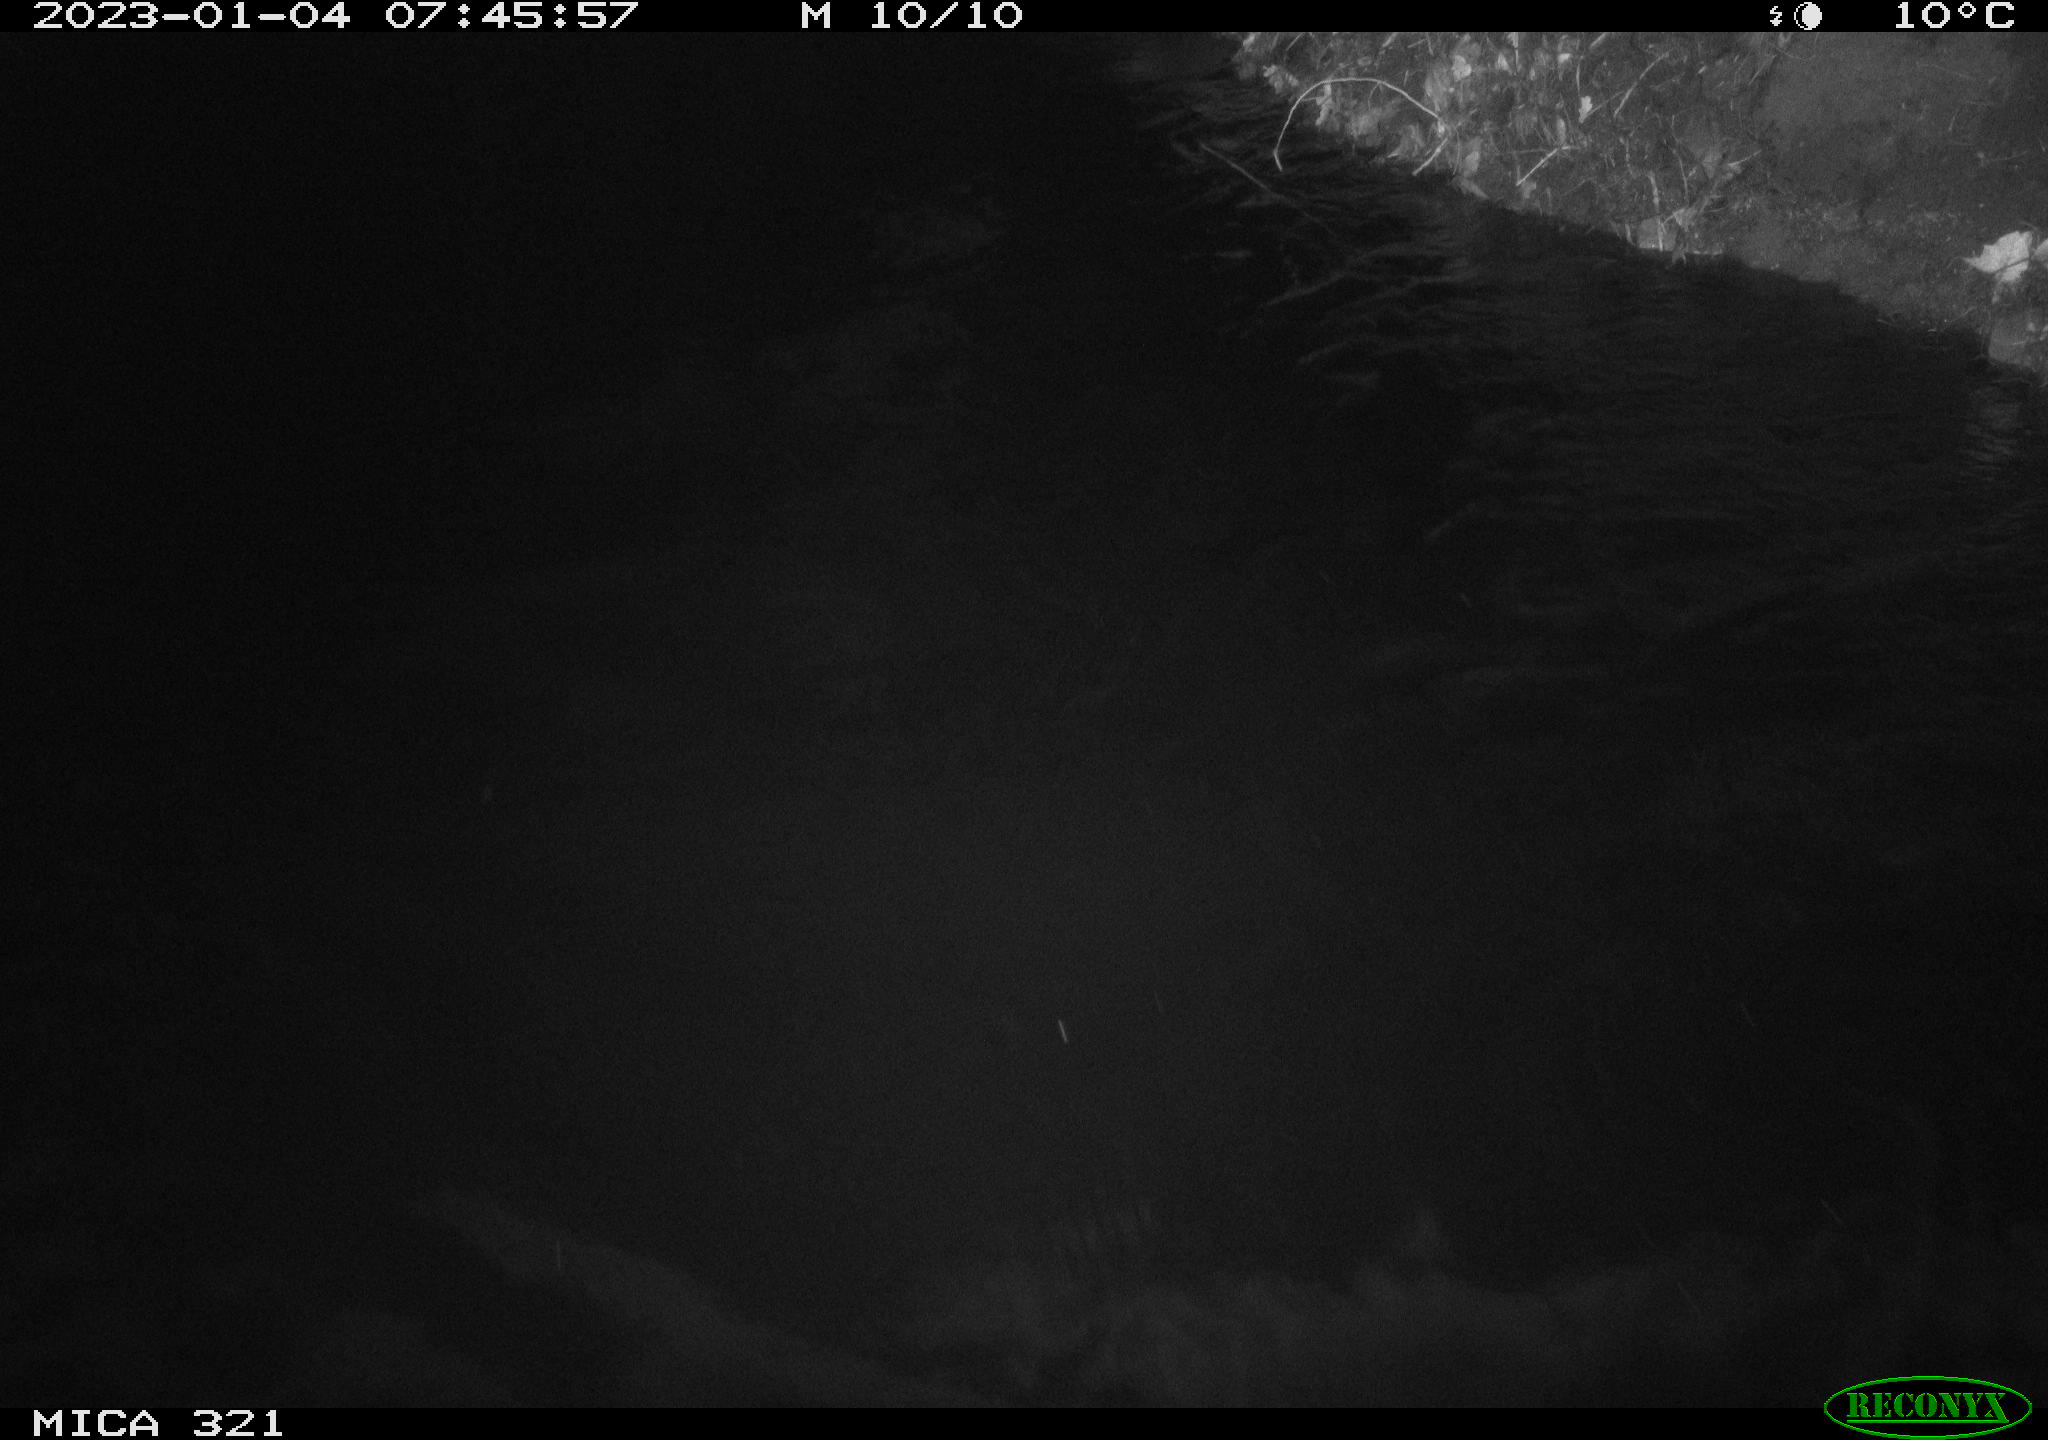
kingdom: Animalia
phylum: Chordata
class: Mammalia
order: Rodentia
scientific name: Rodentia
